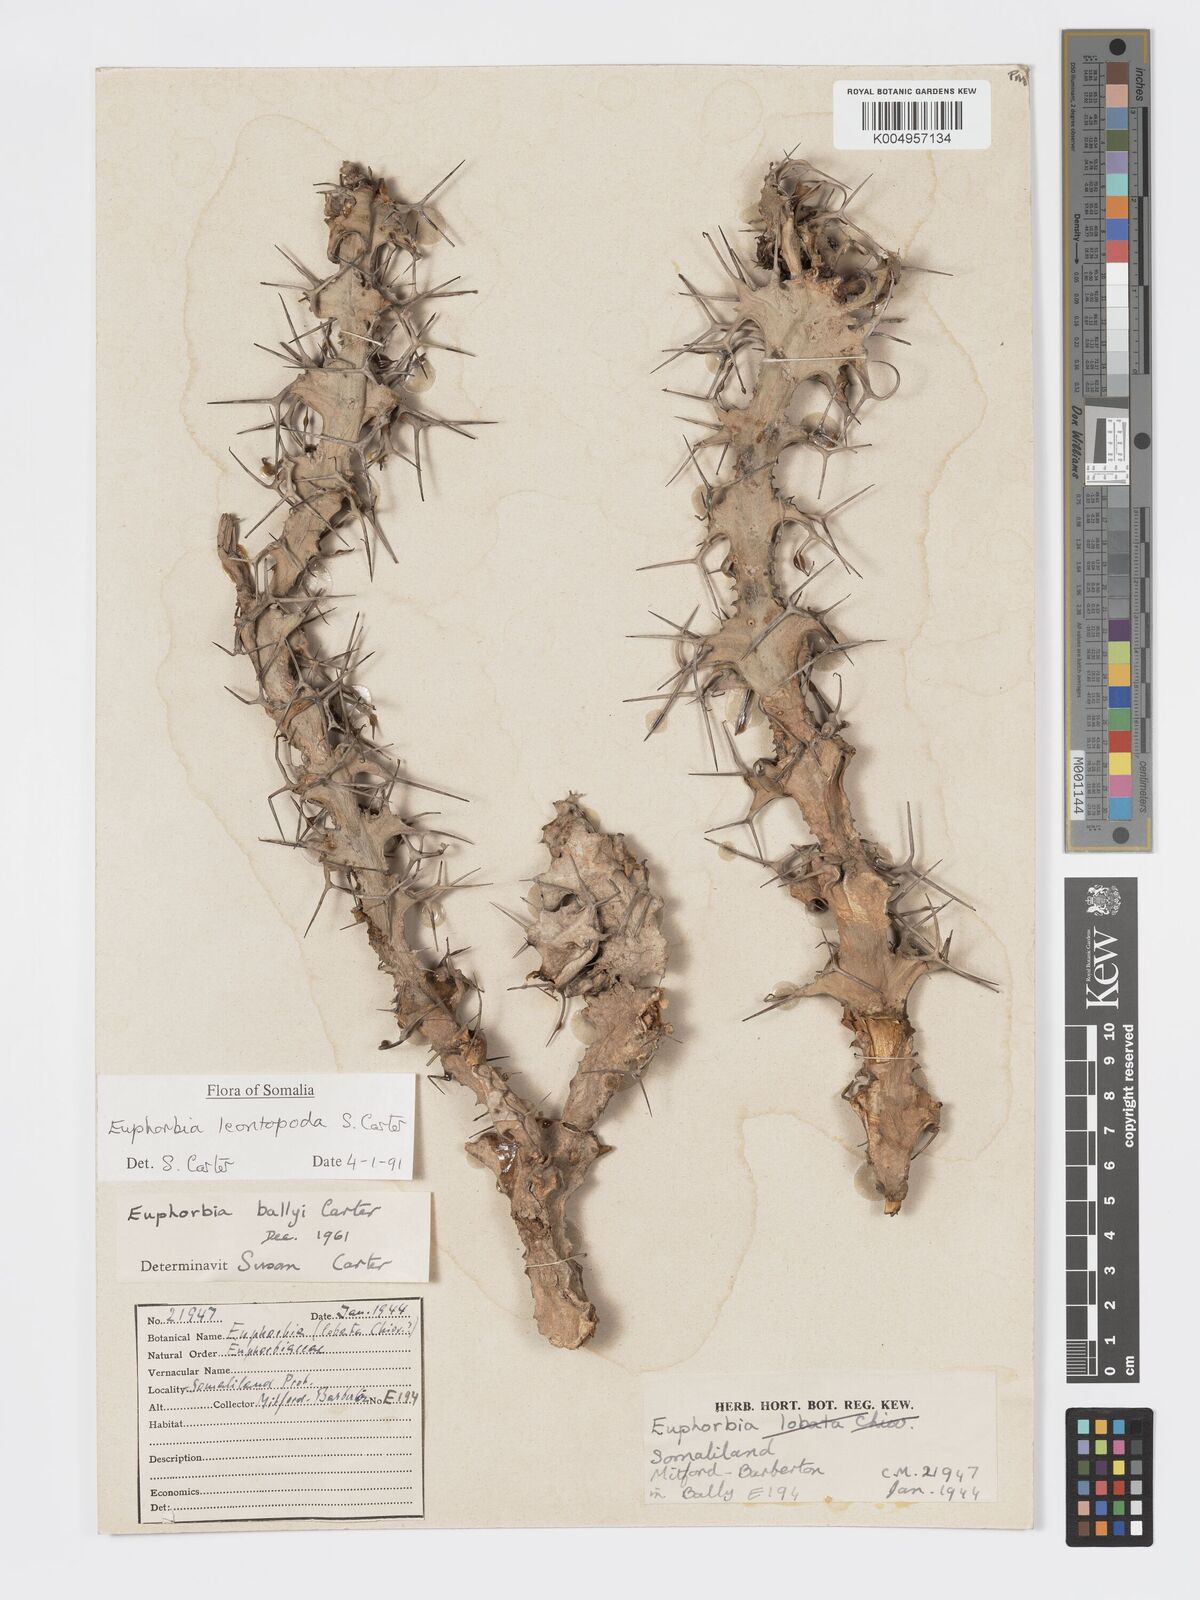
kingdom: Plantae
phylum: Tracheophyta
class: Magnoliopsida
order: Malpighiales
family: Euphorbiaceae
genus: Euphorbia
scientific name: Euphorbia leontopoda
